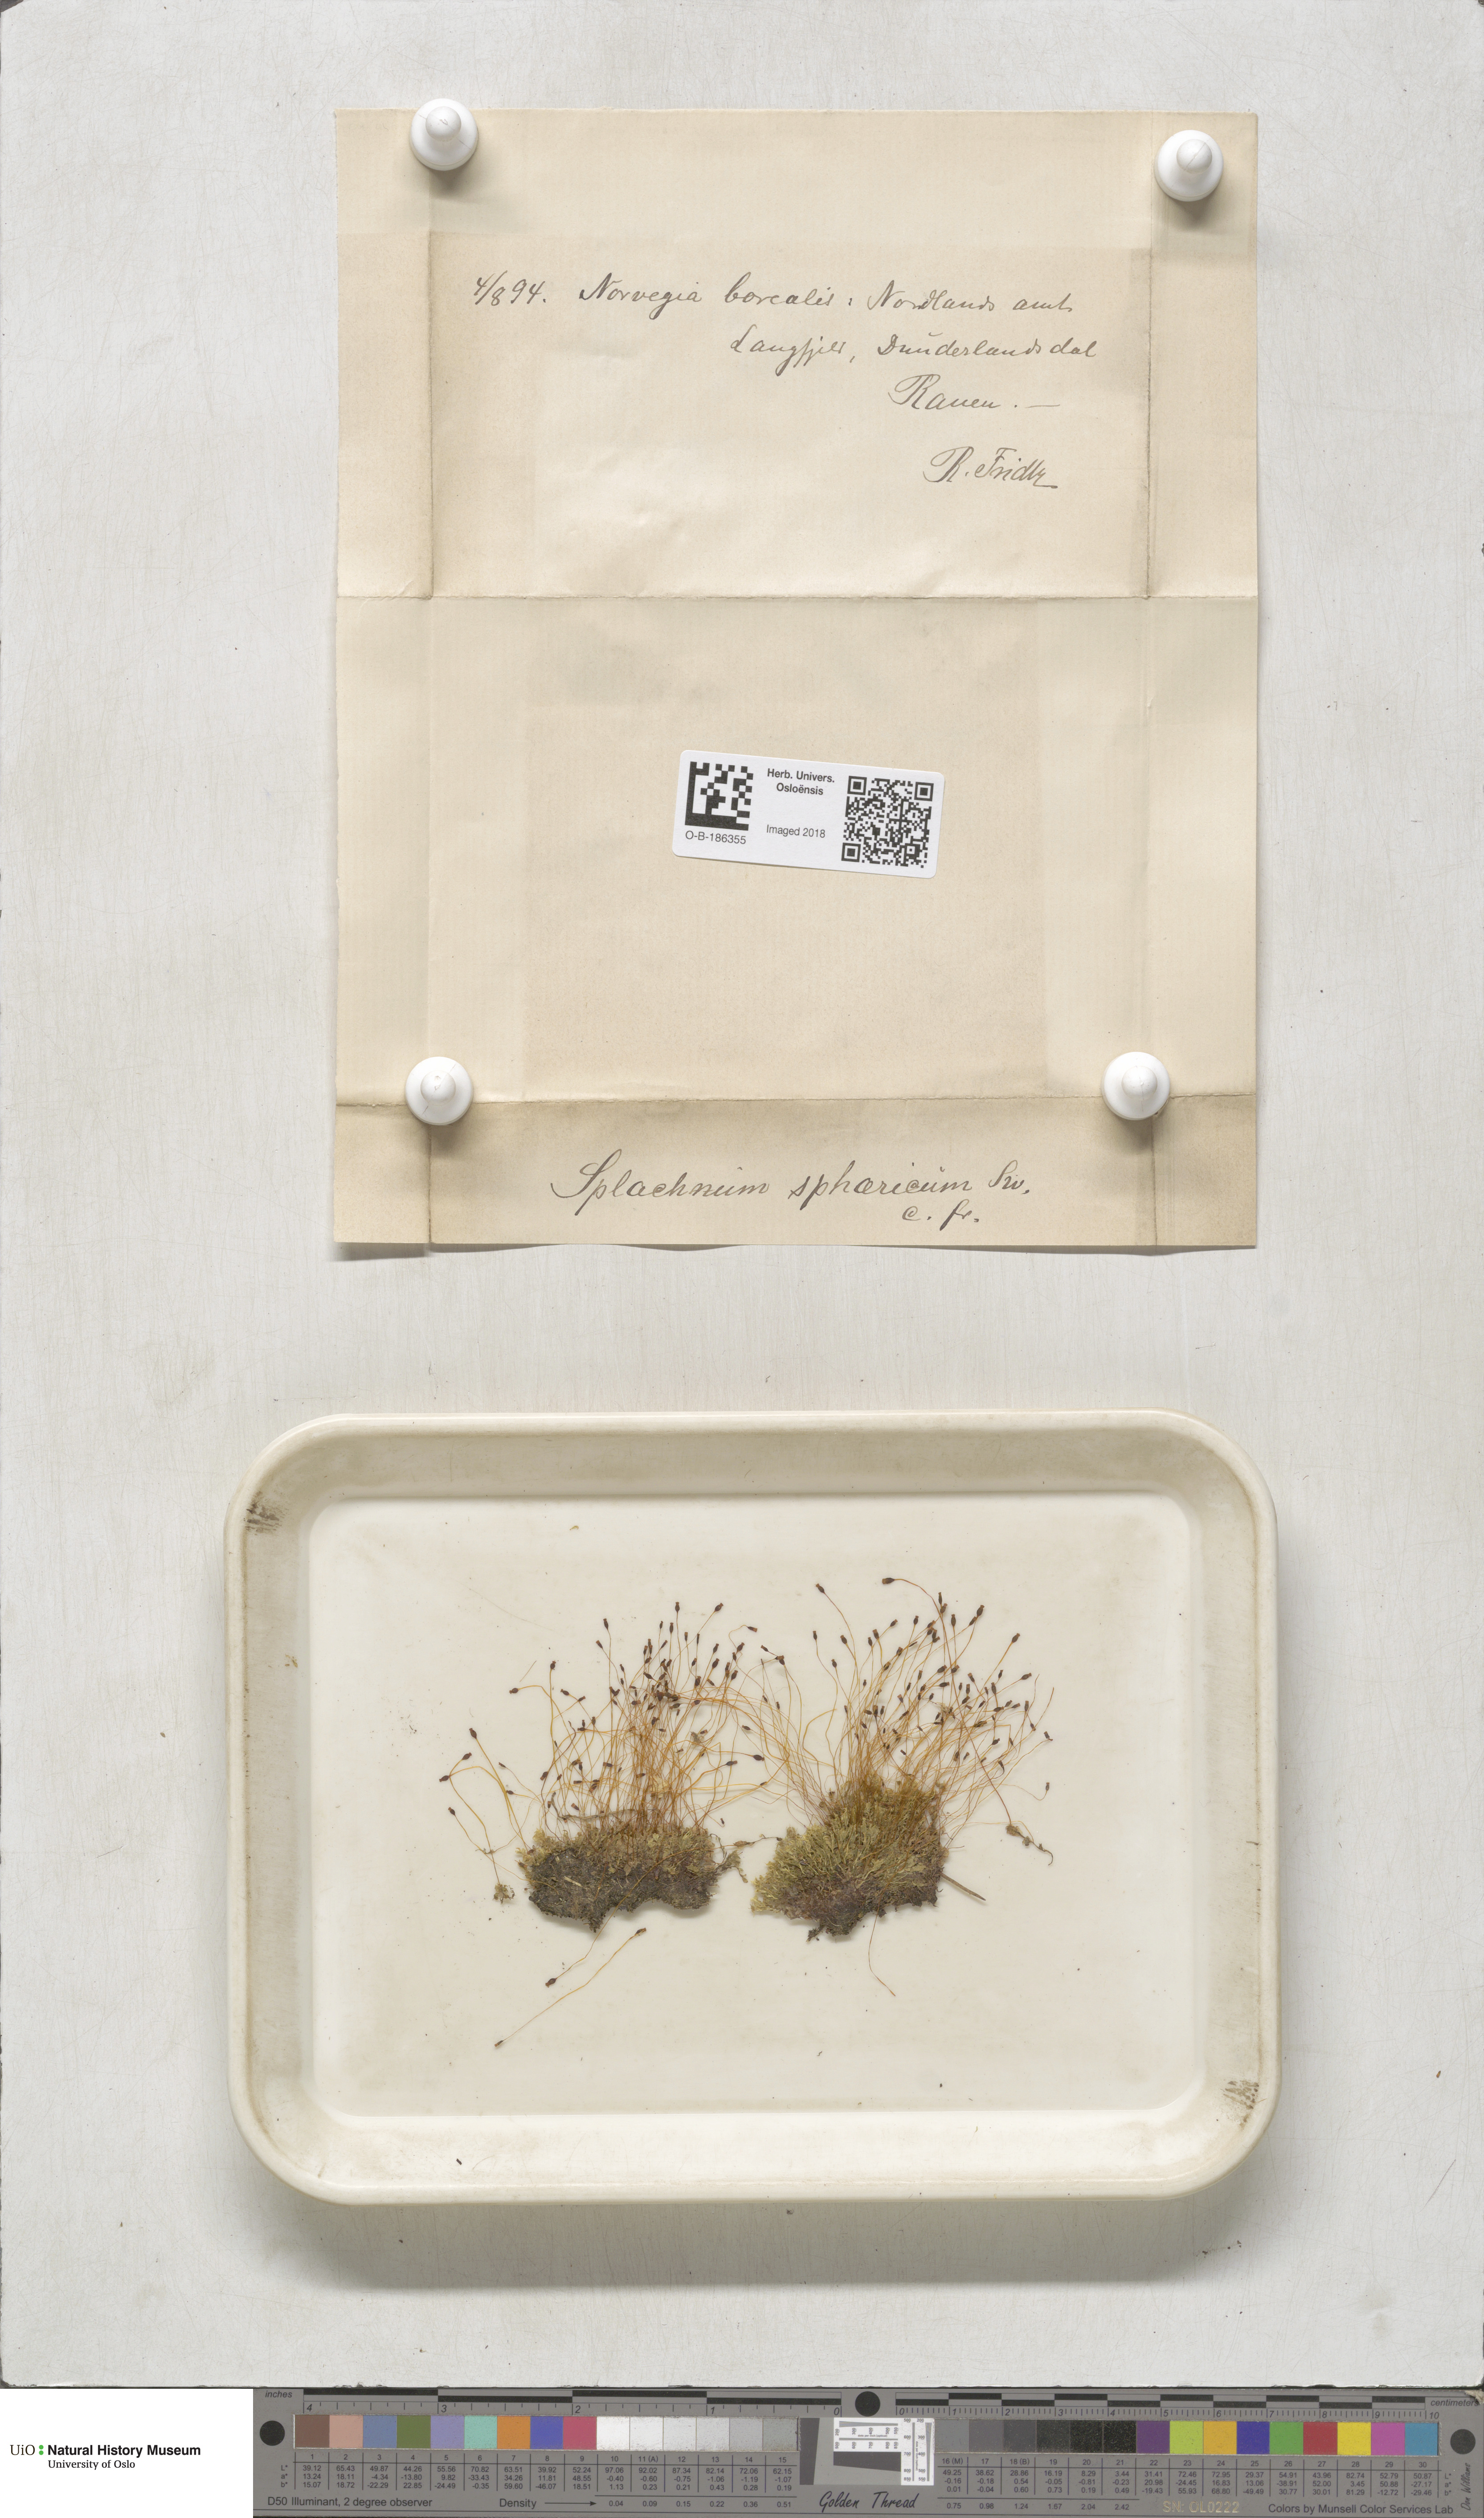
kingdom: Plantae
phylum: Bryophyta
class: Bryopsida
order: Splachnales
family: Splachnaceae
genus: Splachnum
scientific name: Splachnum sphaericum
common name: Round-fruited dung moss
